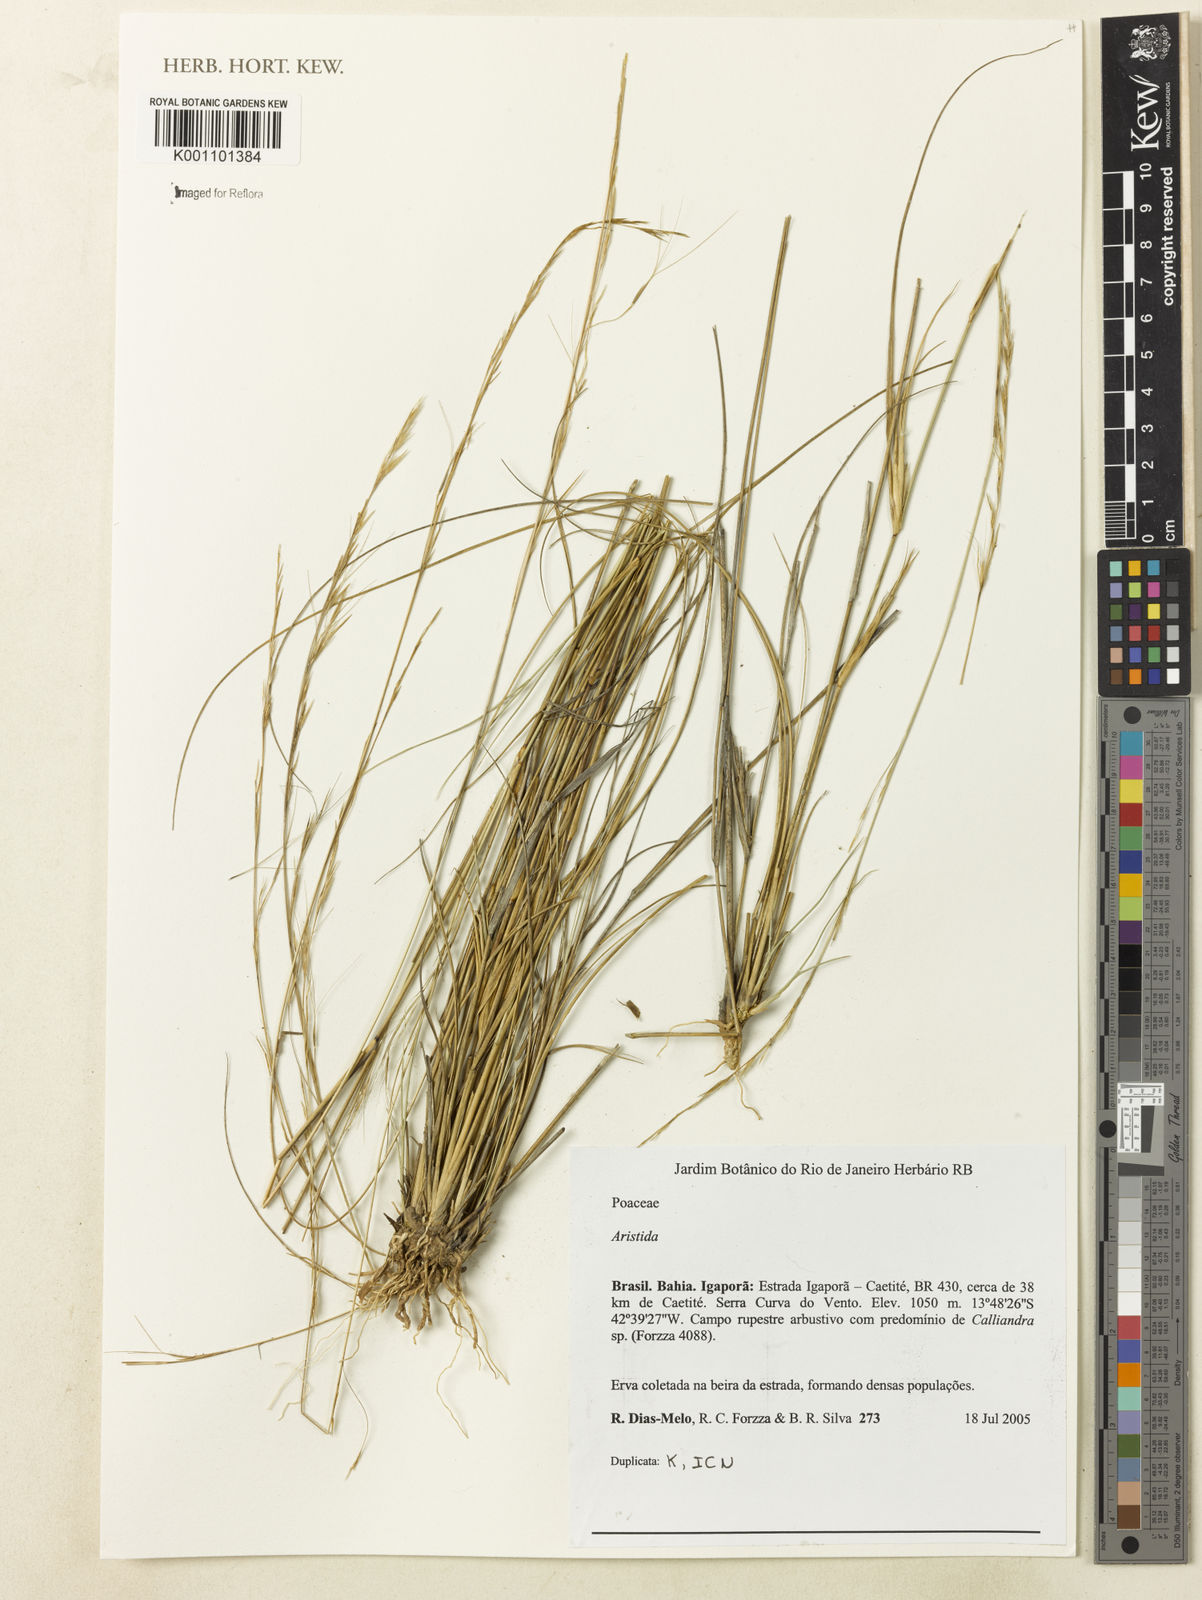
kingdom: Plantae
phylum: Tracheophyta
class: Liliopsida
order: Poales
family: Poaceae
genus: Aristida
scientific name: Aristida
